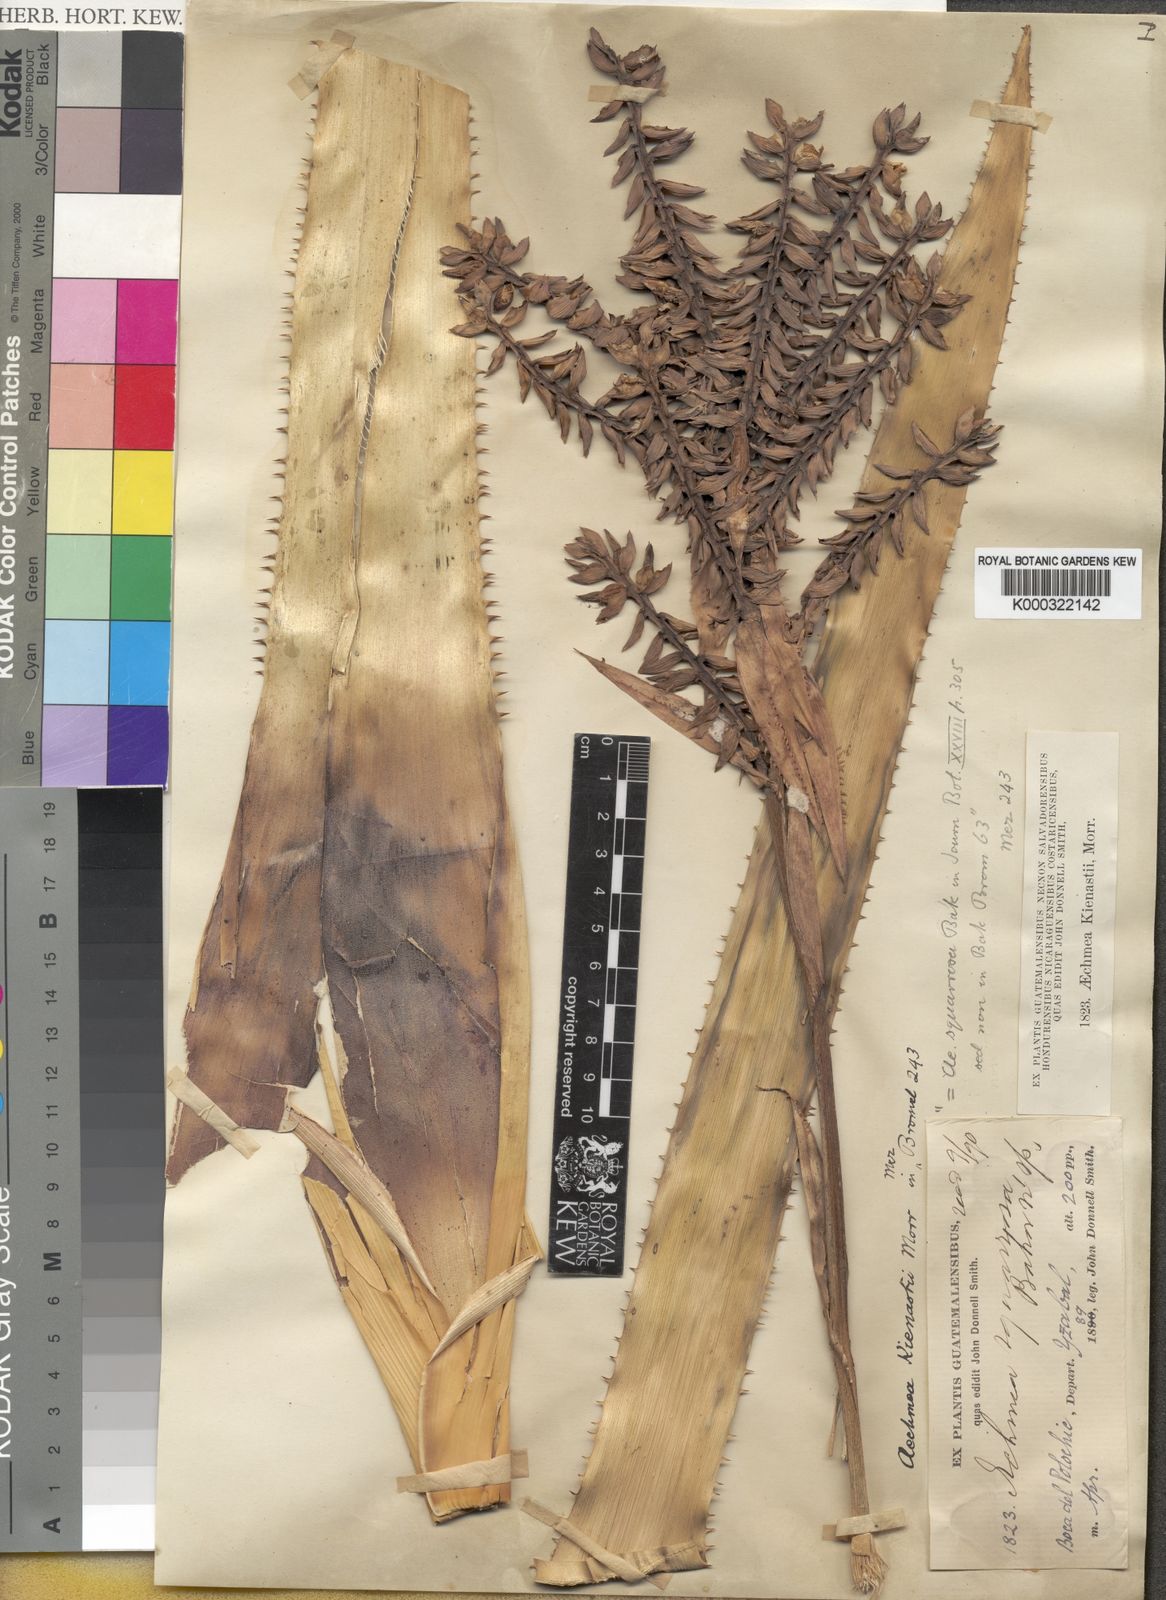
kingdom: Plantae
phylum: Tracheophyta
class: Liliopsida
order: Poales
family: Bromeliaceae
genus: Aechmea
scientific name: Aechmea tillandsioides
